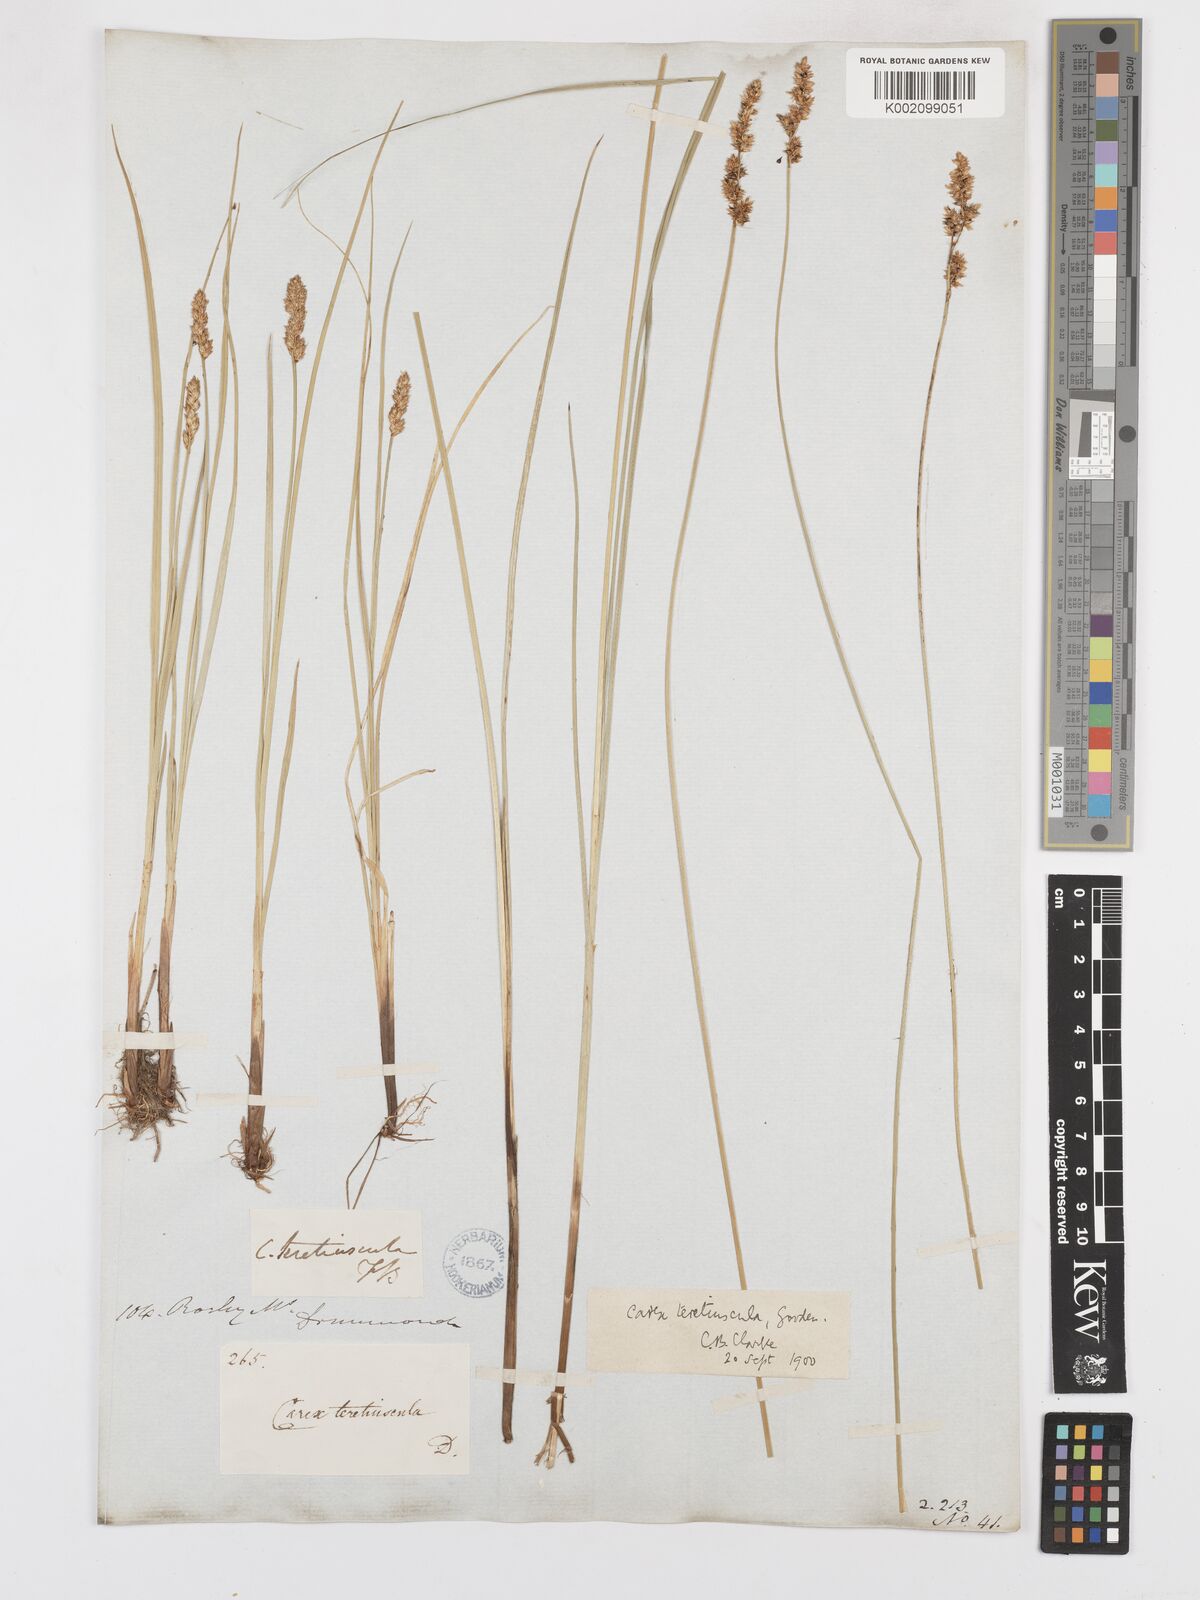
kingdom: Plantae
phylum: Tracheophyta
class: Liliopsida
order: Poales
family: Cyperaceae
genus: Carex
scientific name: Carex diandra
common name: Lesser tussock-sedge
